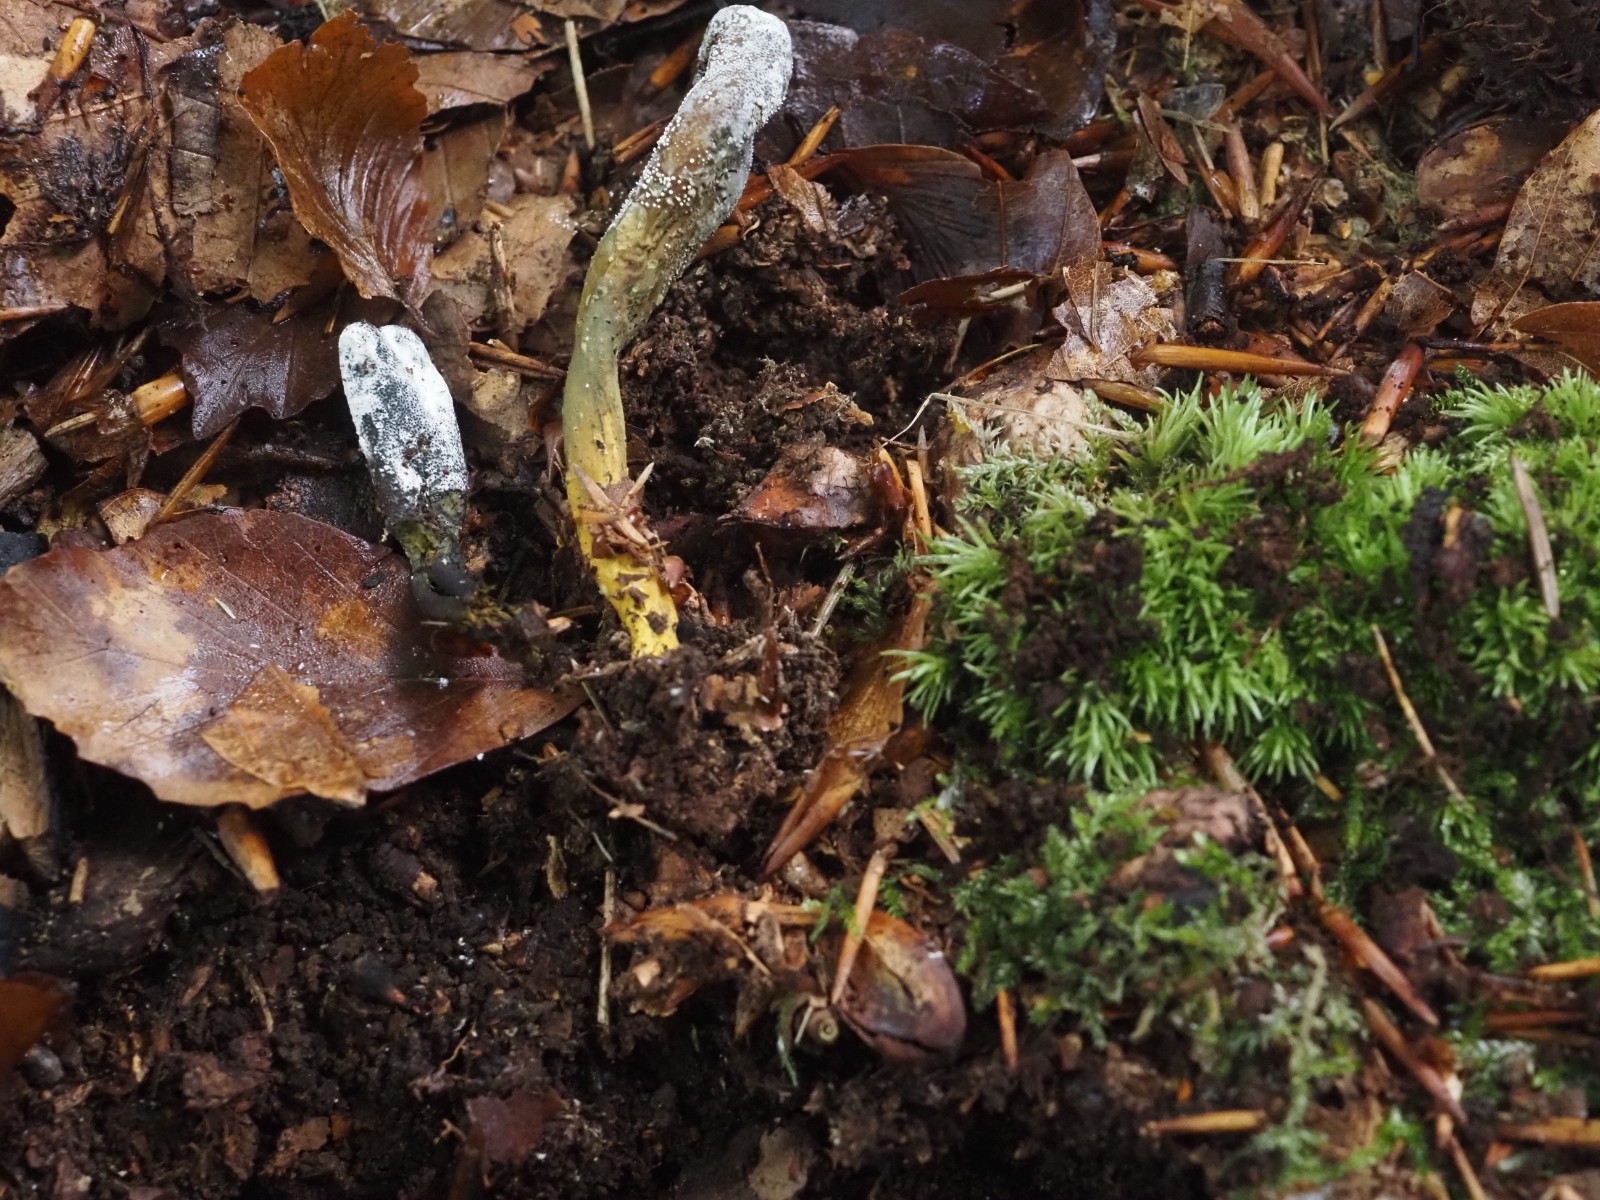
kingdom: Fungi
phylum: Ascomycota
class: Sordariomycetes
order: Hypocreales
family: Ophiocordycipitaceae
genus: Tolypocladium
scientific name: Tolypocladium ophioglossoides
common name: slank snyltekølle
